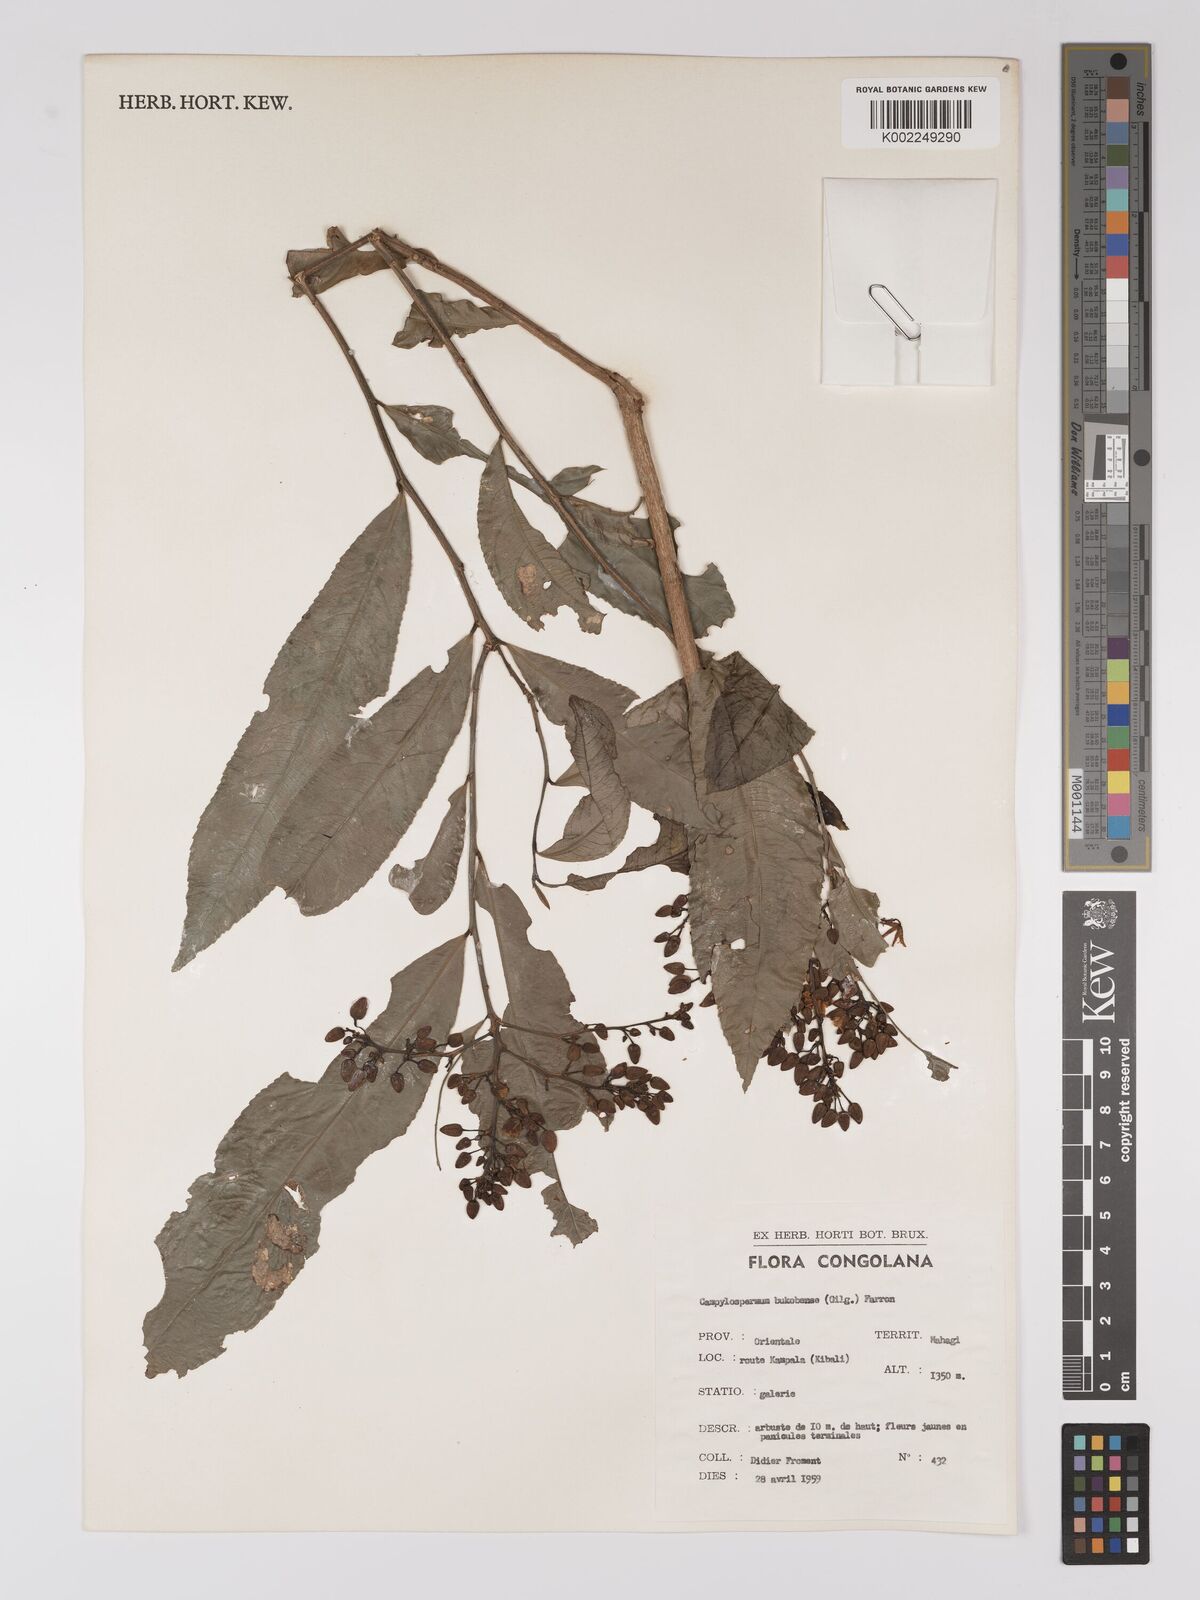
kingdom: Plantae
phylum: Tracheophyta
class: Magnoliopsida
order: Malpighiales
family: Ochnaceae
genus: Campylospermum
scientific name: Campylospermum likimiense
